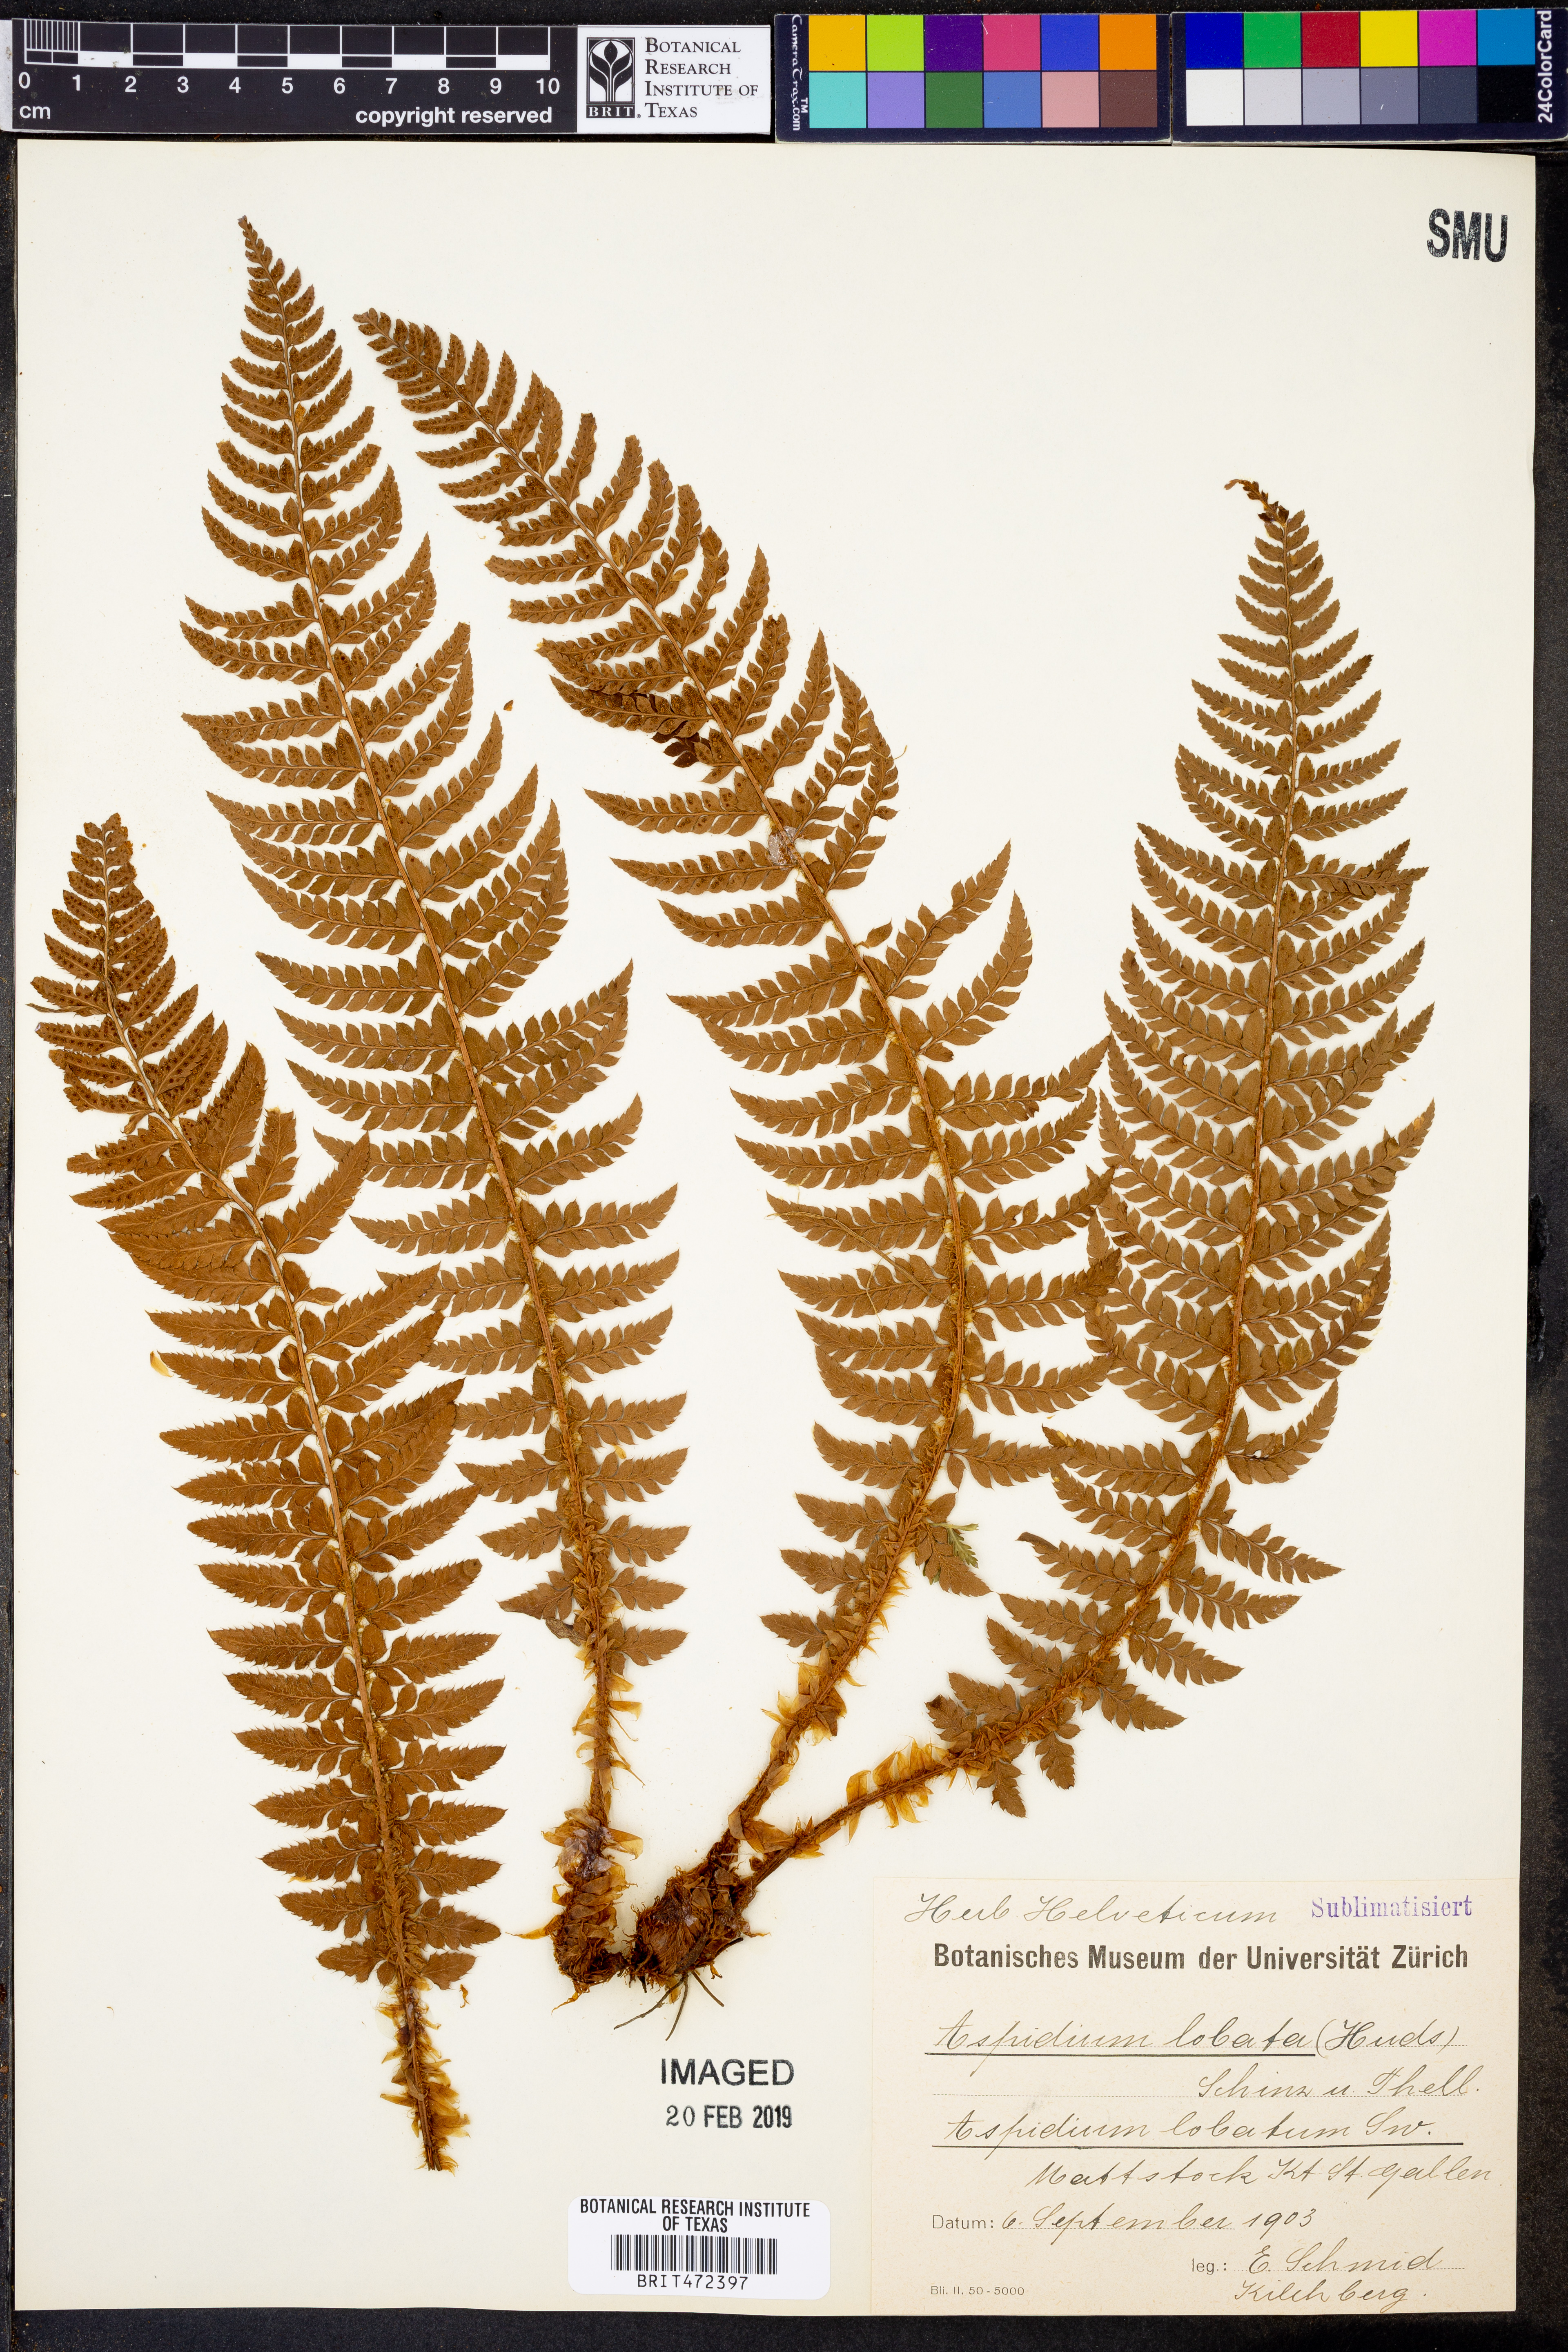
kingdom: Plantae
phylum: Tracheophyta
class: Polypodiopsida
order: Polypodiales
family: Dryopteridaceae
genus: Polystichum
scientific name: Polystichum aculeatum
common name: Hard shield-fern
